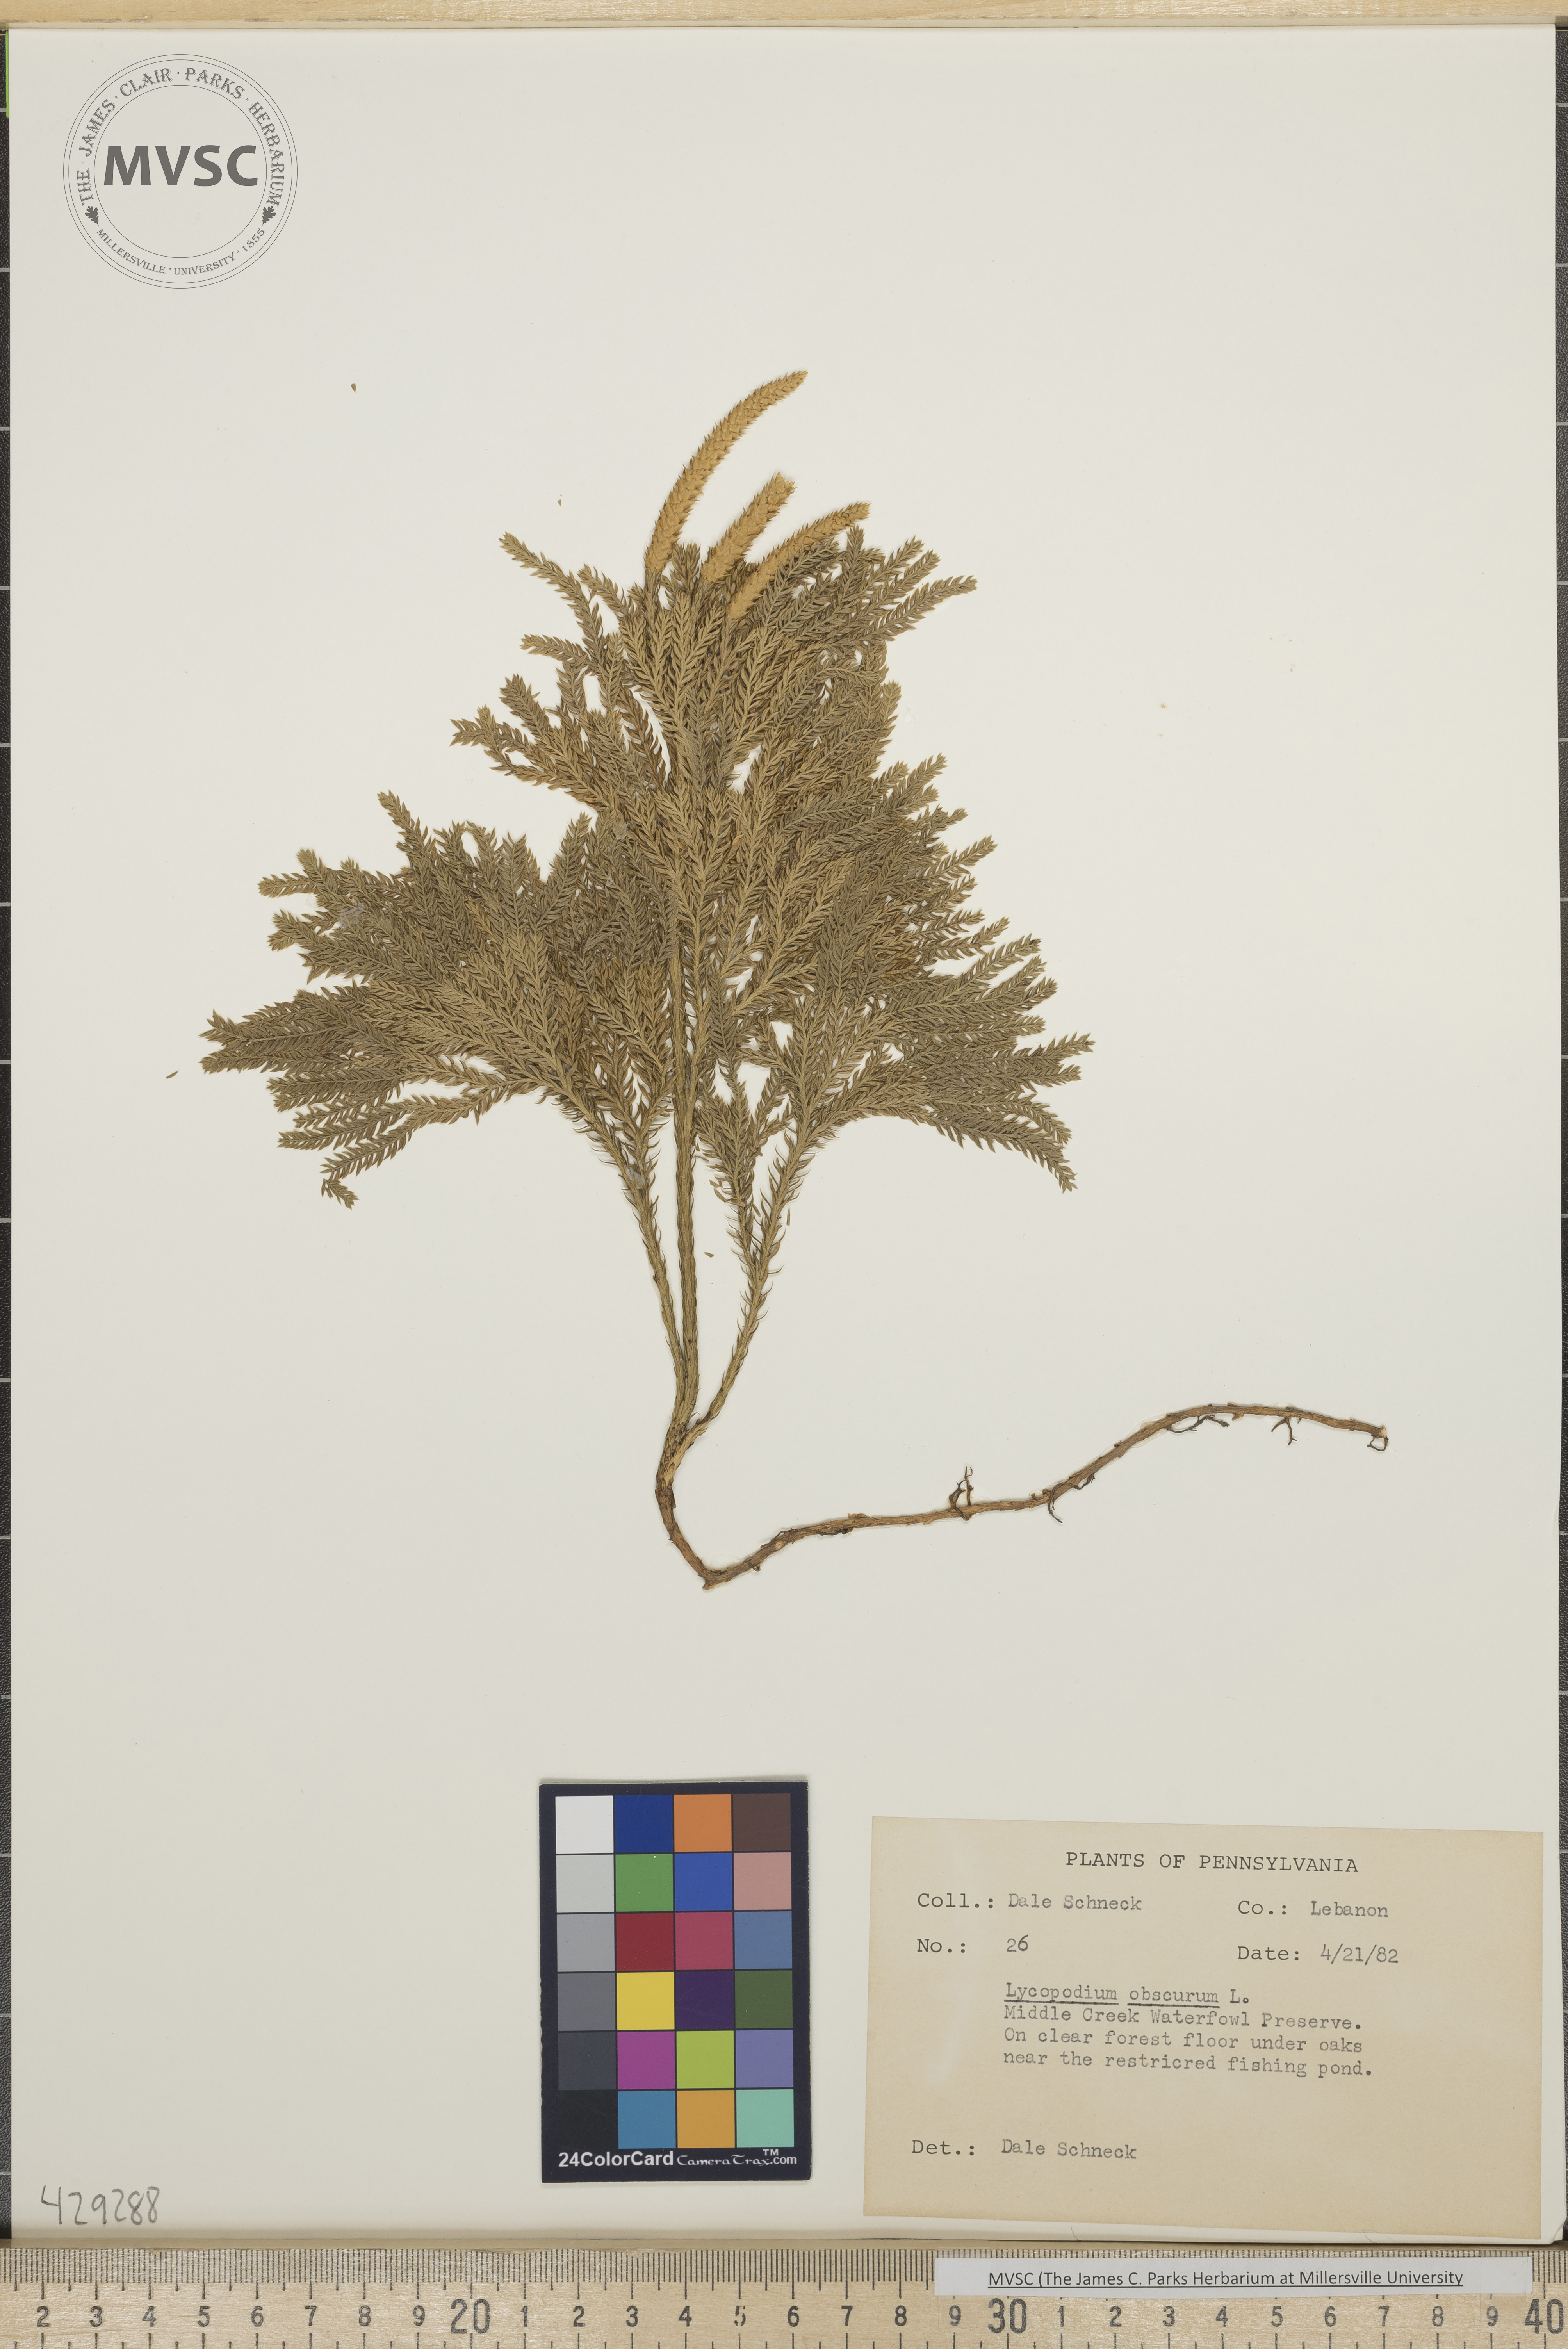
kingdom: Plantae
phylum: Tracheophyta
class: Lycopodiopsida
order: Lycopodiales
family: Lycopodiaceae
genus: Dendrolycopodium
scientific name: Dendrolycopodium obscurum
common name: Common ground-pine
